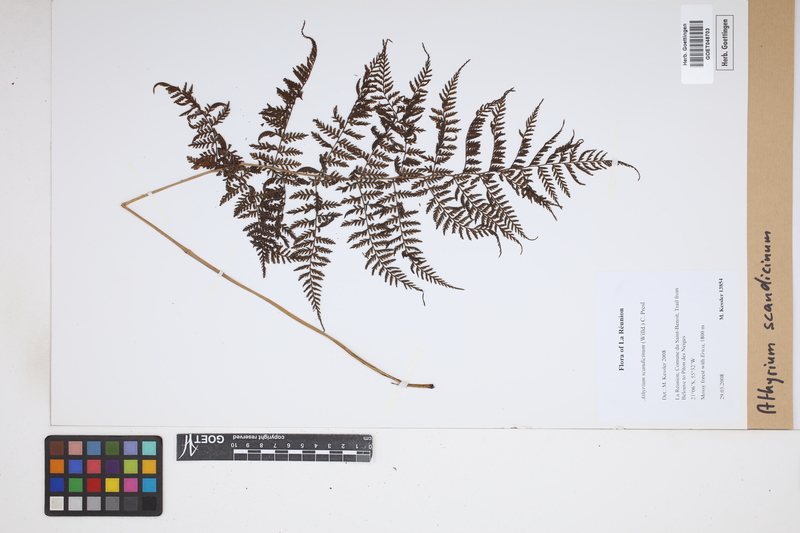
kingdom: Plantae
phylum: Tracheophyta
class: Polypodiopsida
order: Polypodiales
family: Athyriaceae
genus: Athyrium
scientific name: Athyrium scandicinum
